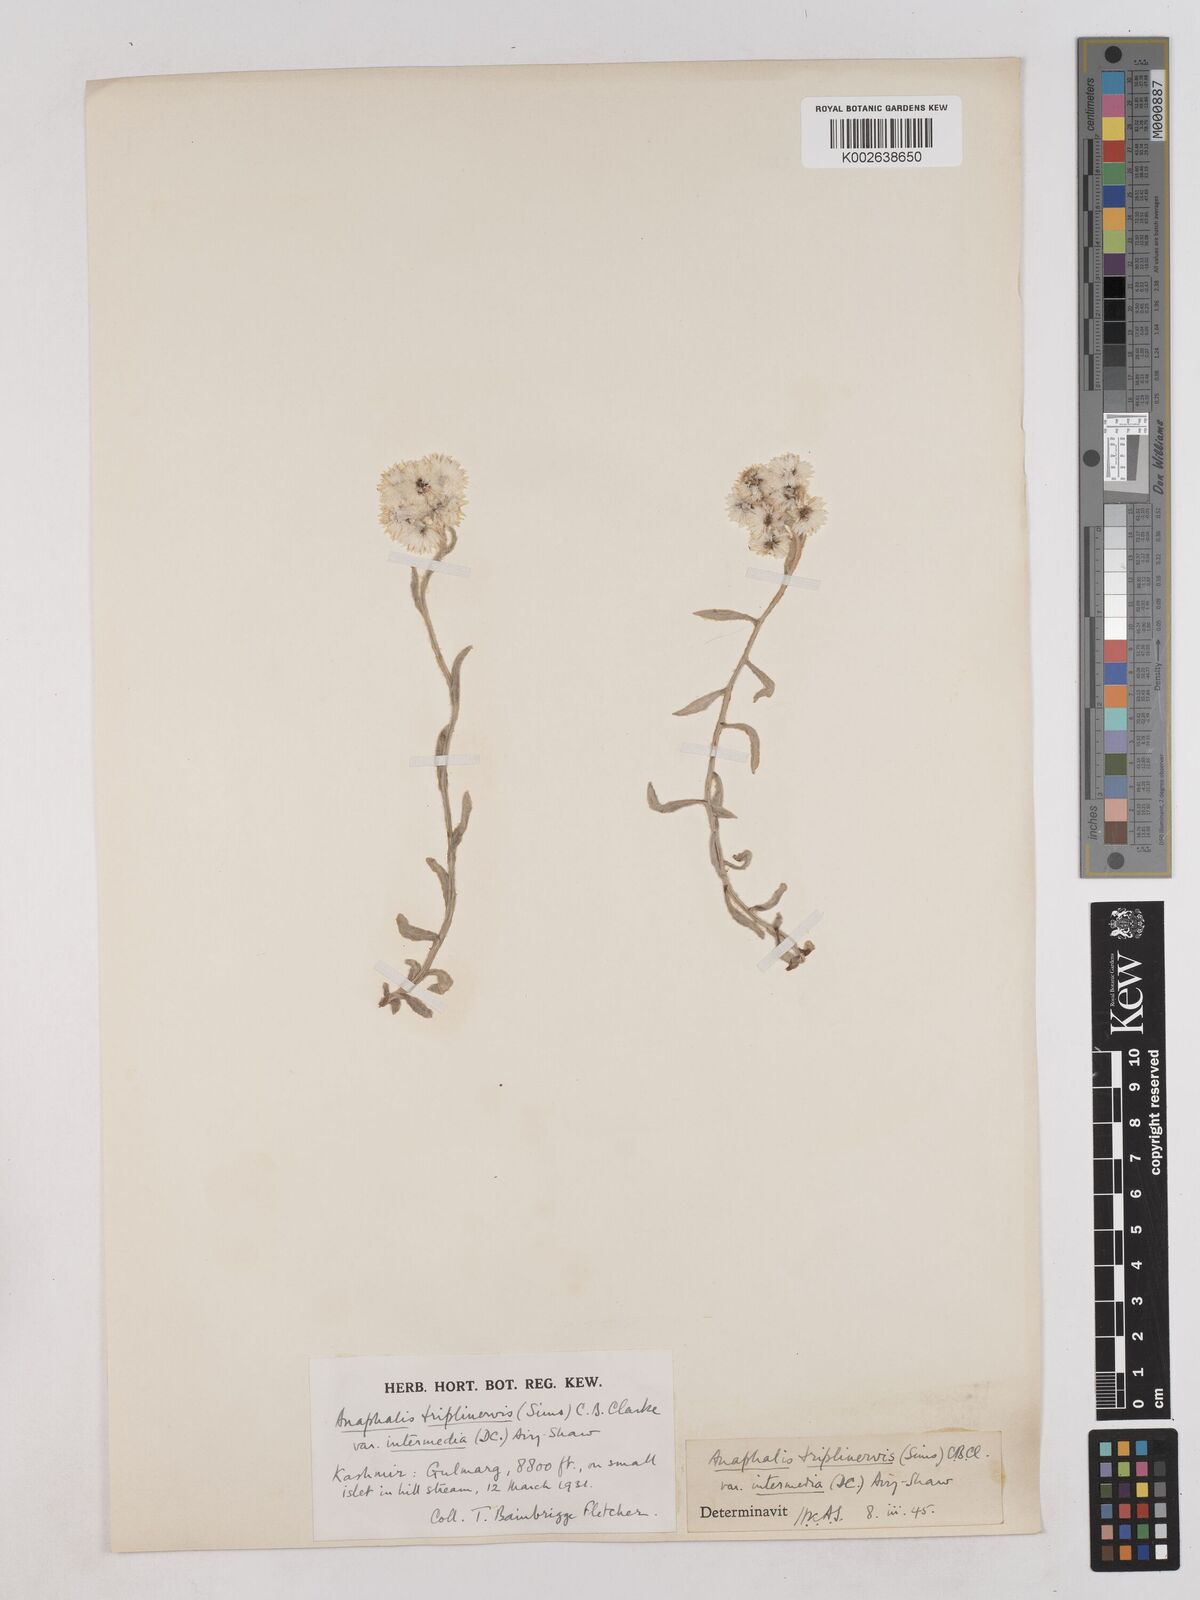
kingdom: Plantae
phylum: Tracheophyta
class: Magnoliopsida
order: Asterales
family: Asteraceae
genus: Anaphalis
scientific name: Anaphalis nepalensis
